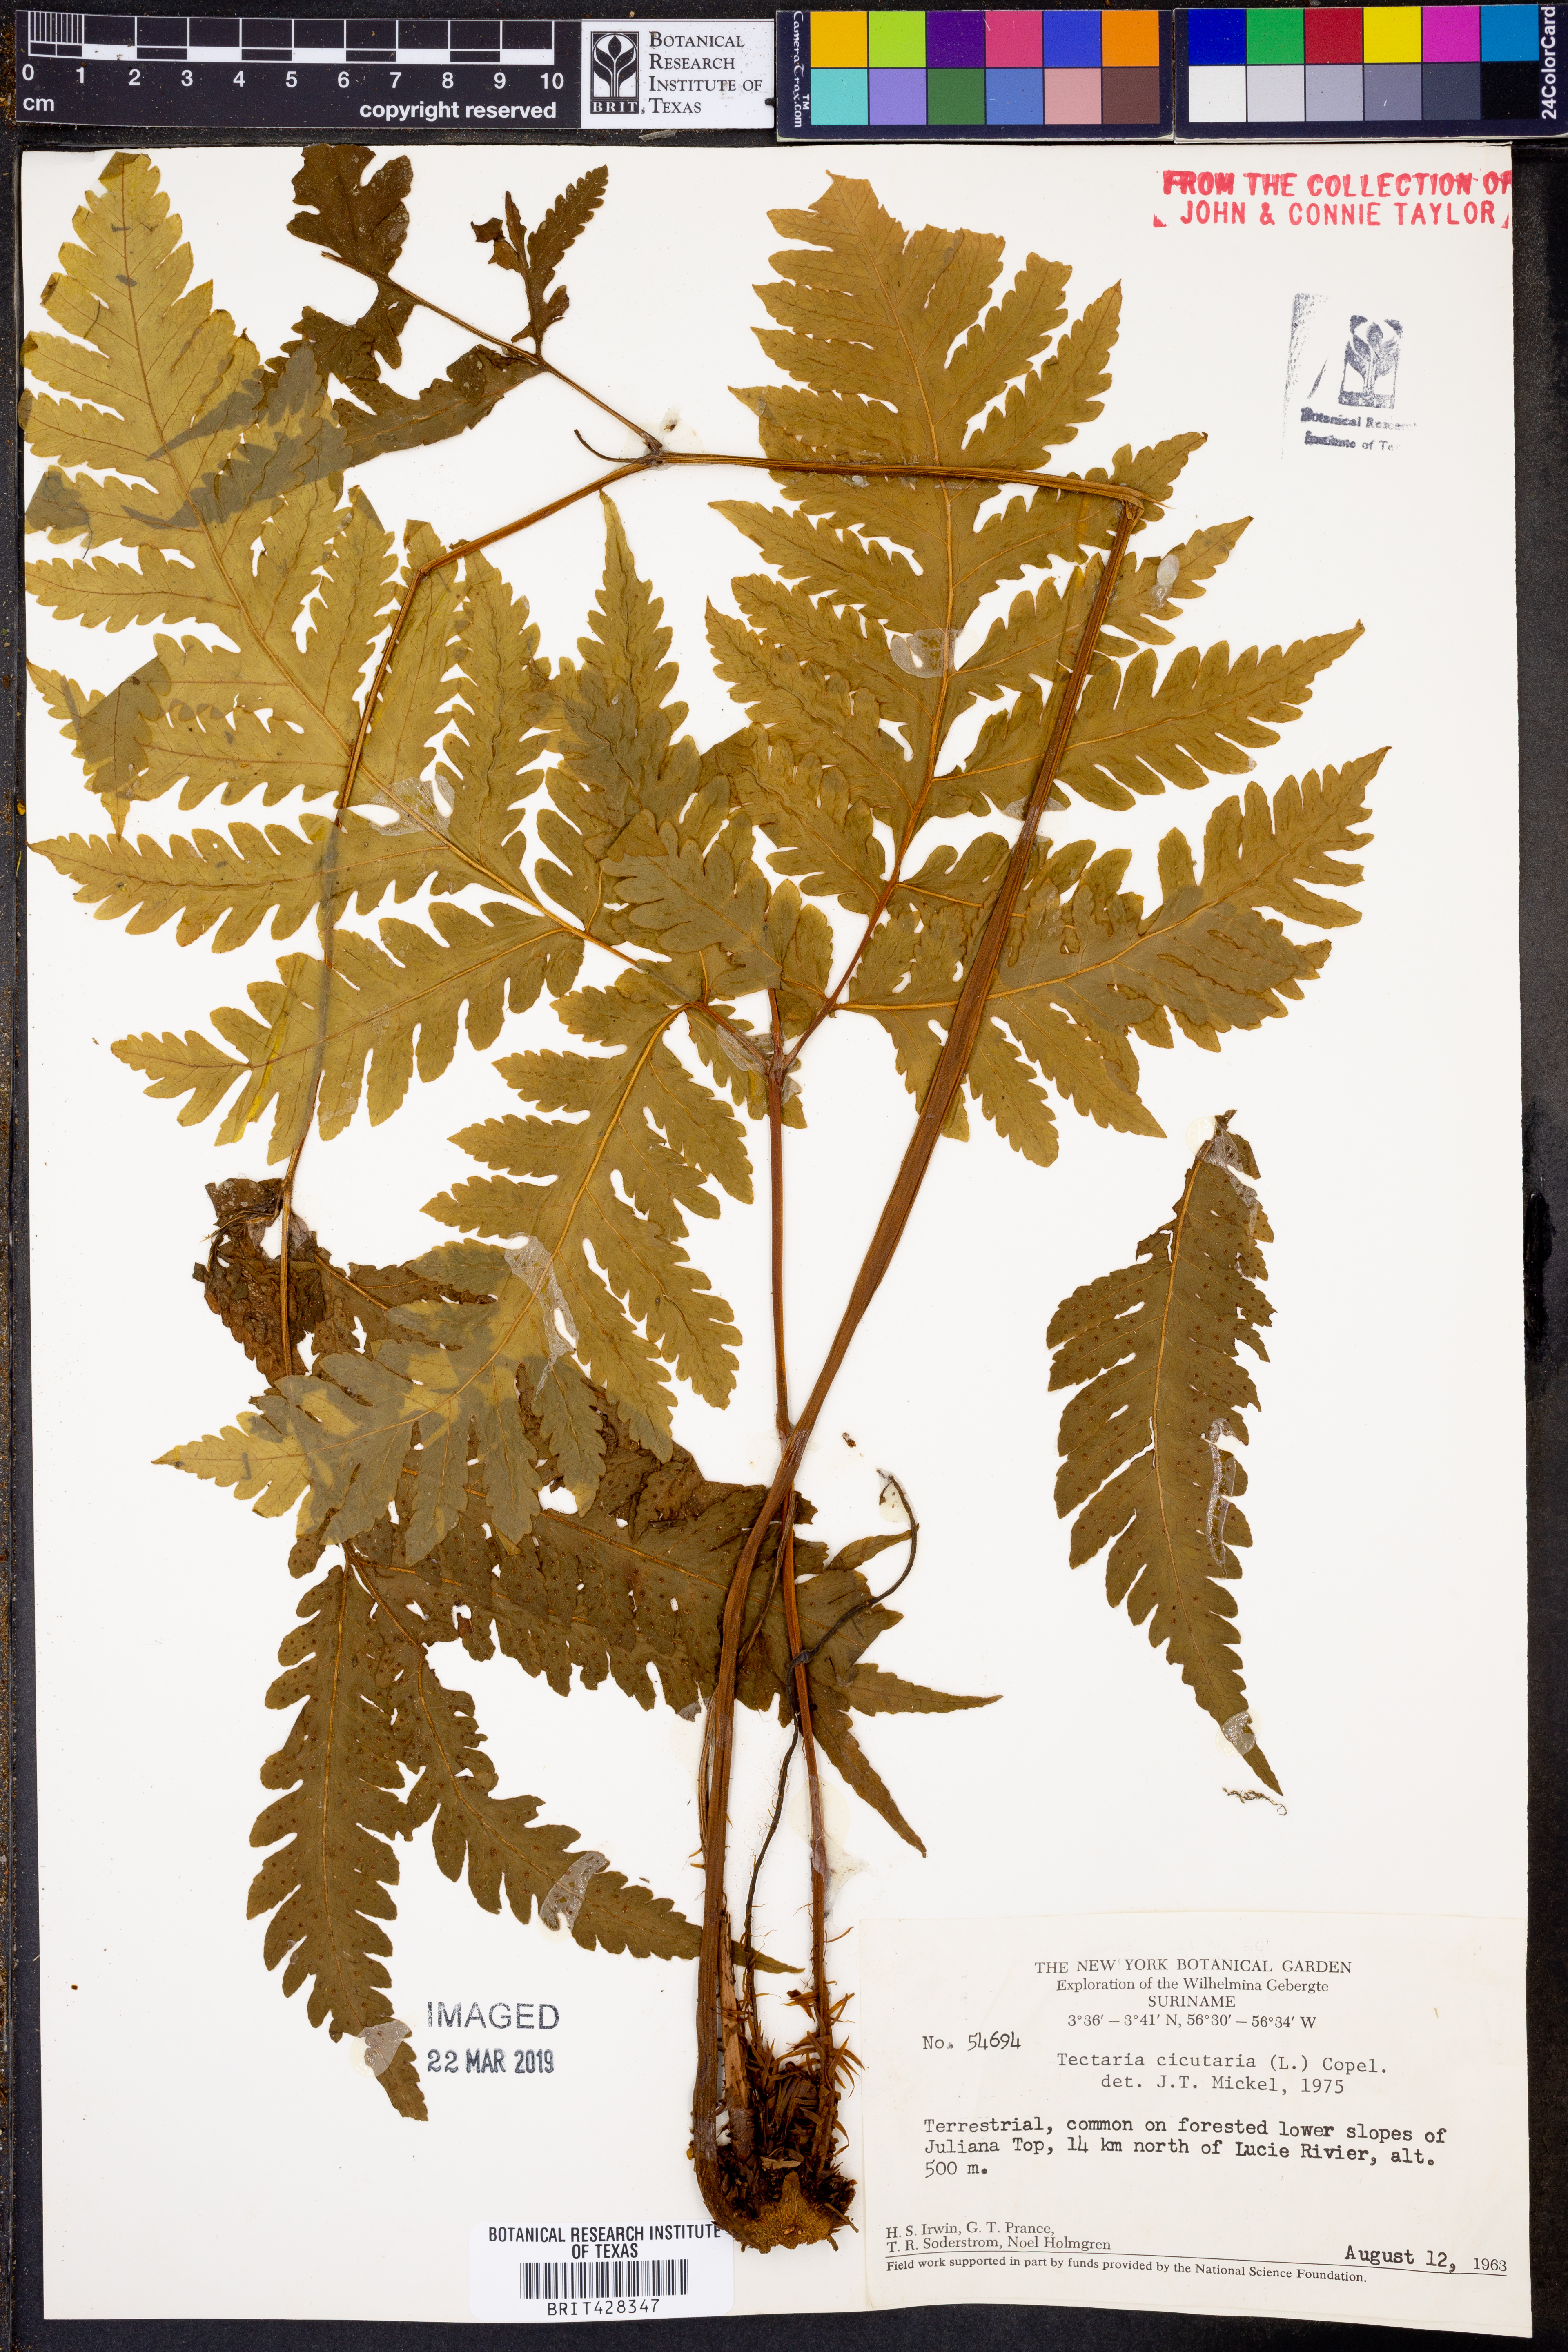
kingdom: Plantae
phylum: Tracheophyta
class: Polypodiopsida
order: Polypodiales
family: Tectariaceae
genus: Tectaria
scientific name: Tectaria cicutaria
